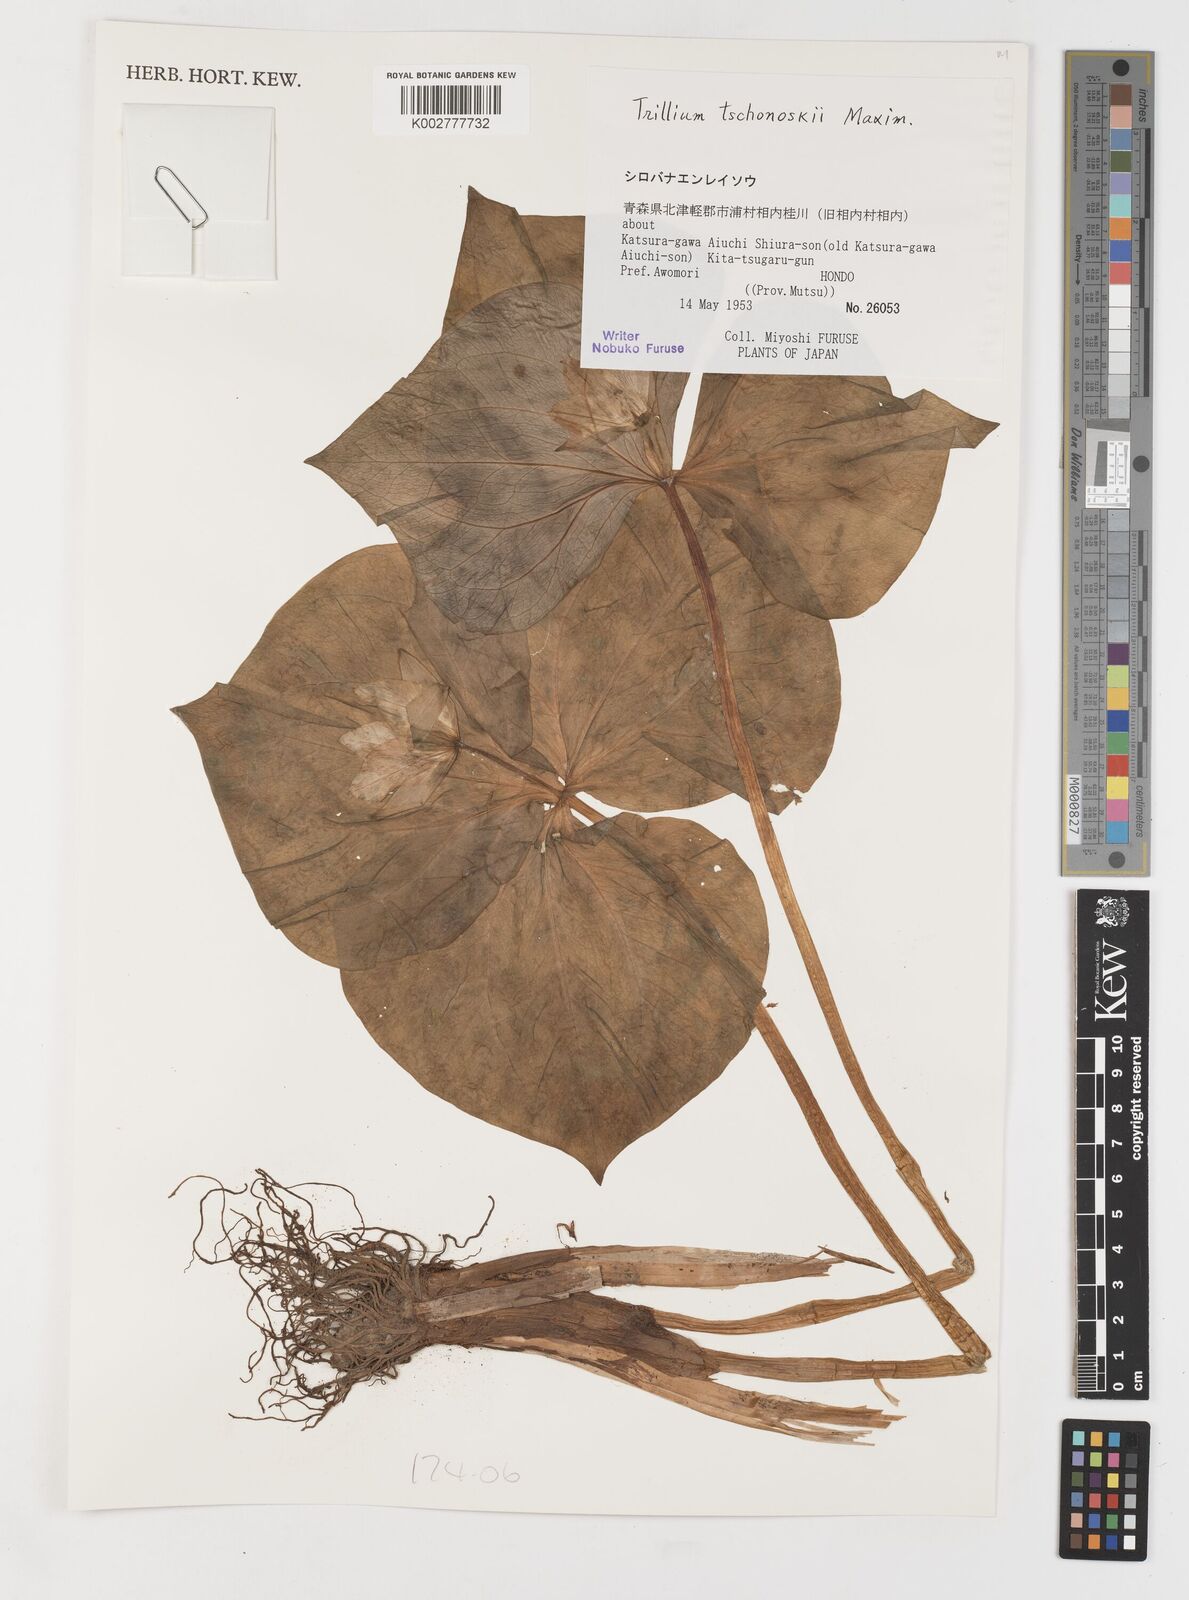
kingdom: Plantae
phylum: Tracheophyta
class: Liliopsida
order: Liliales
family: Melanthiaceae
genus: Trillium
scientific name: Trillium tschonoskii
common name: A pearl on head
